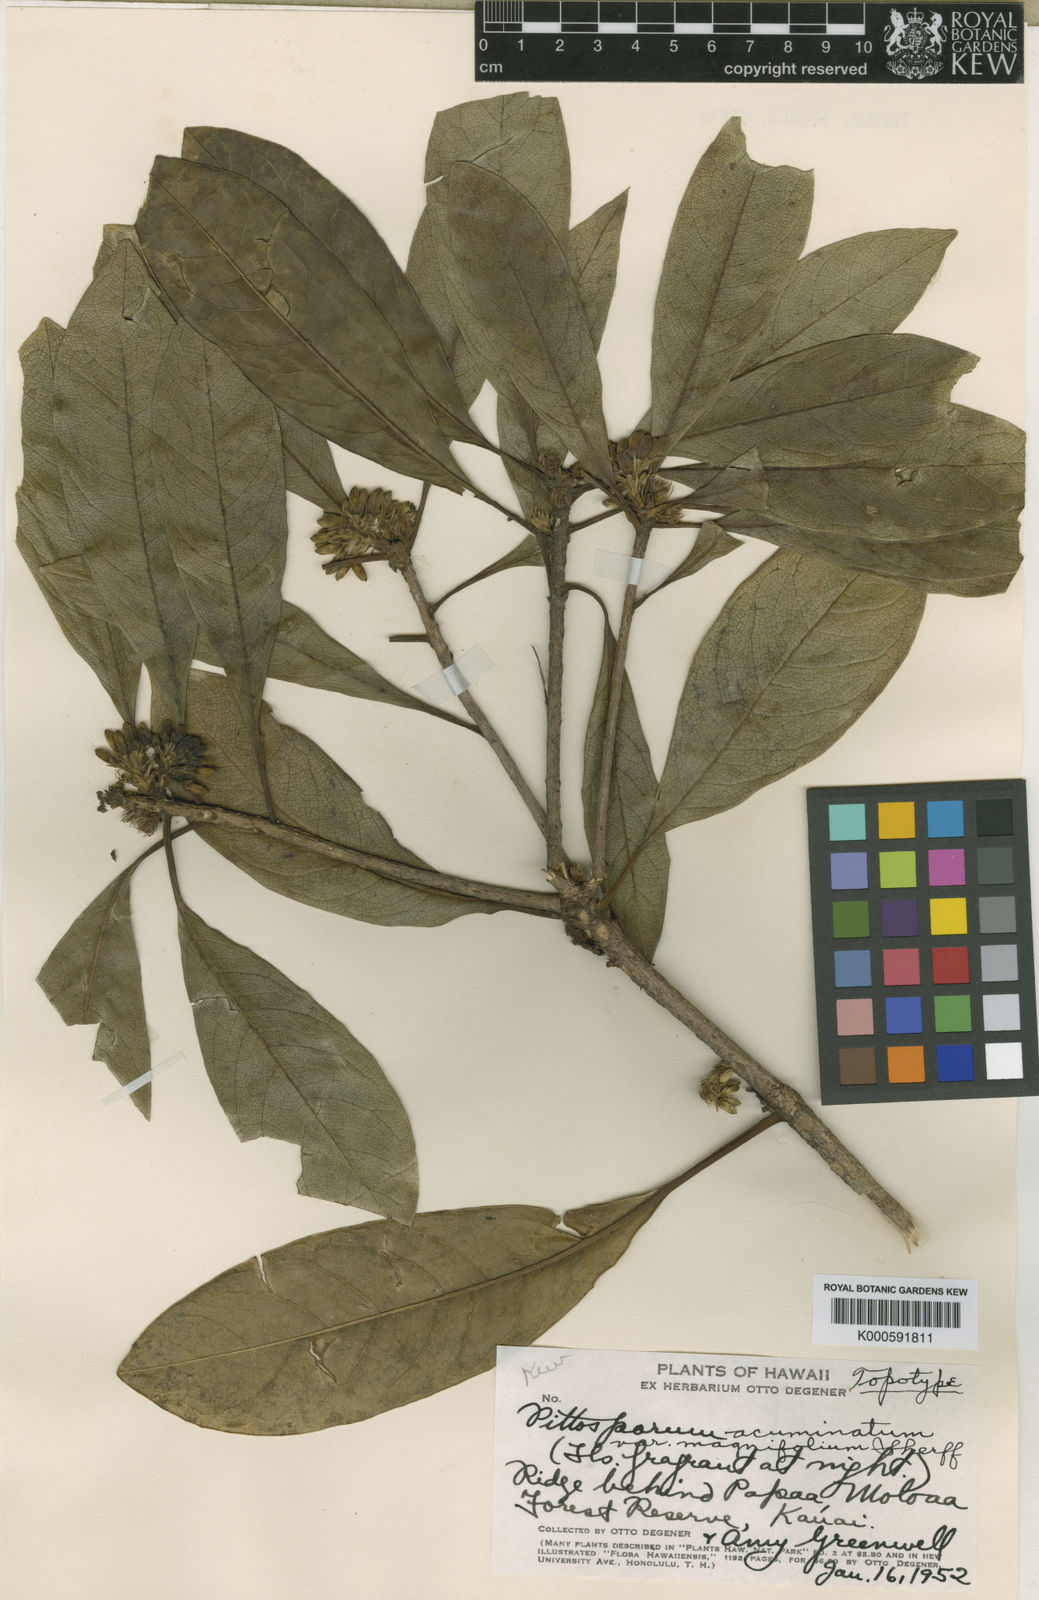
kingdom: Plantae
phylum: Tracheophyta
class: Magnoliopsida
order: Apiales
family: Pittosporaceae
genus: Pittosporum
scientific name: Pittosporum
